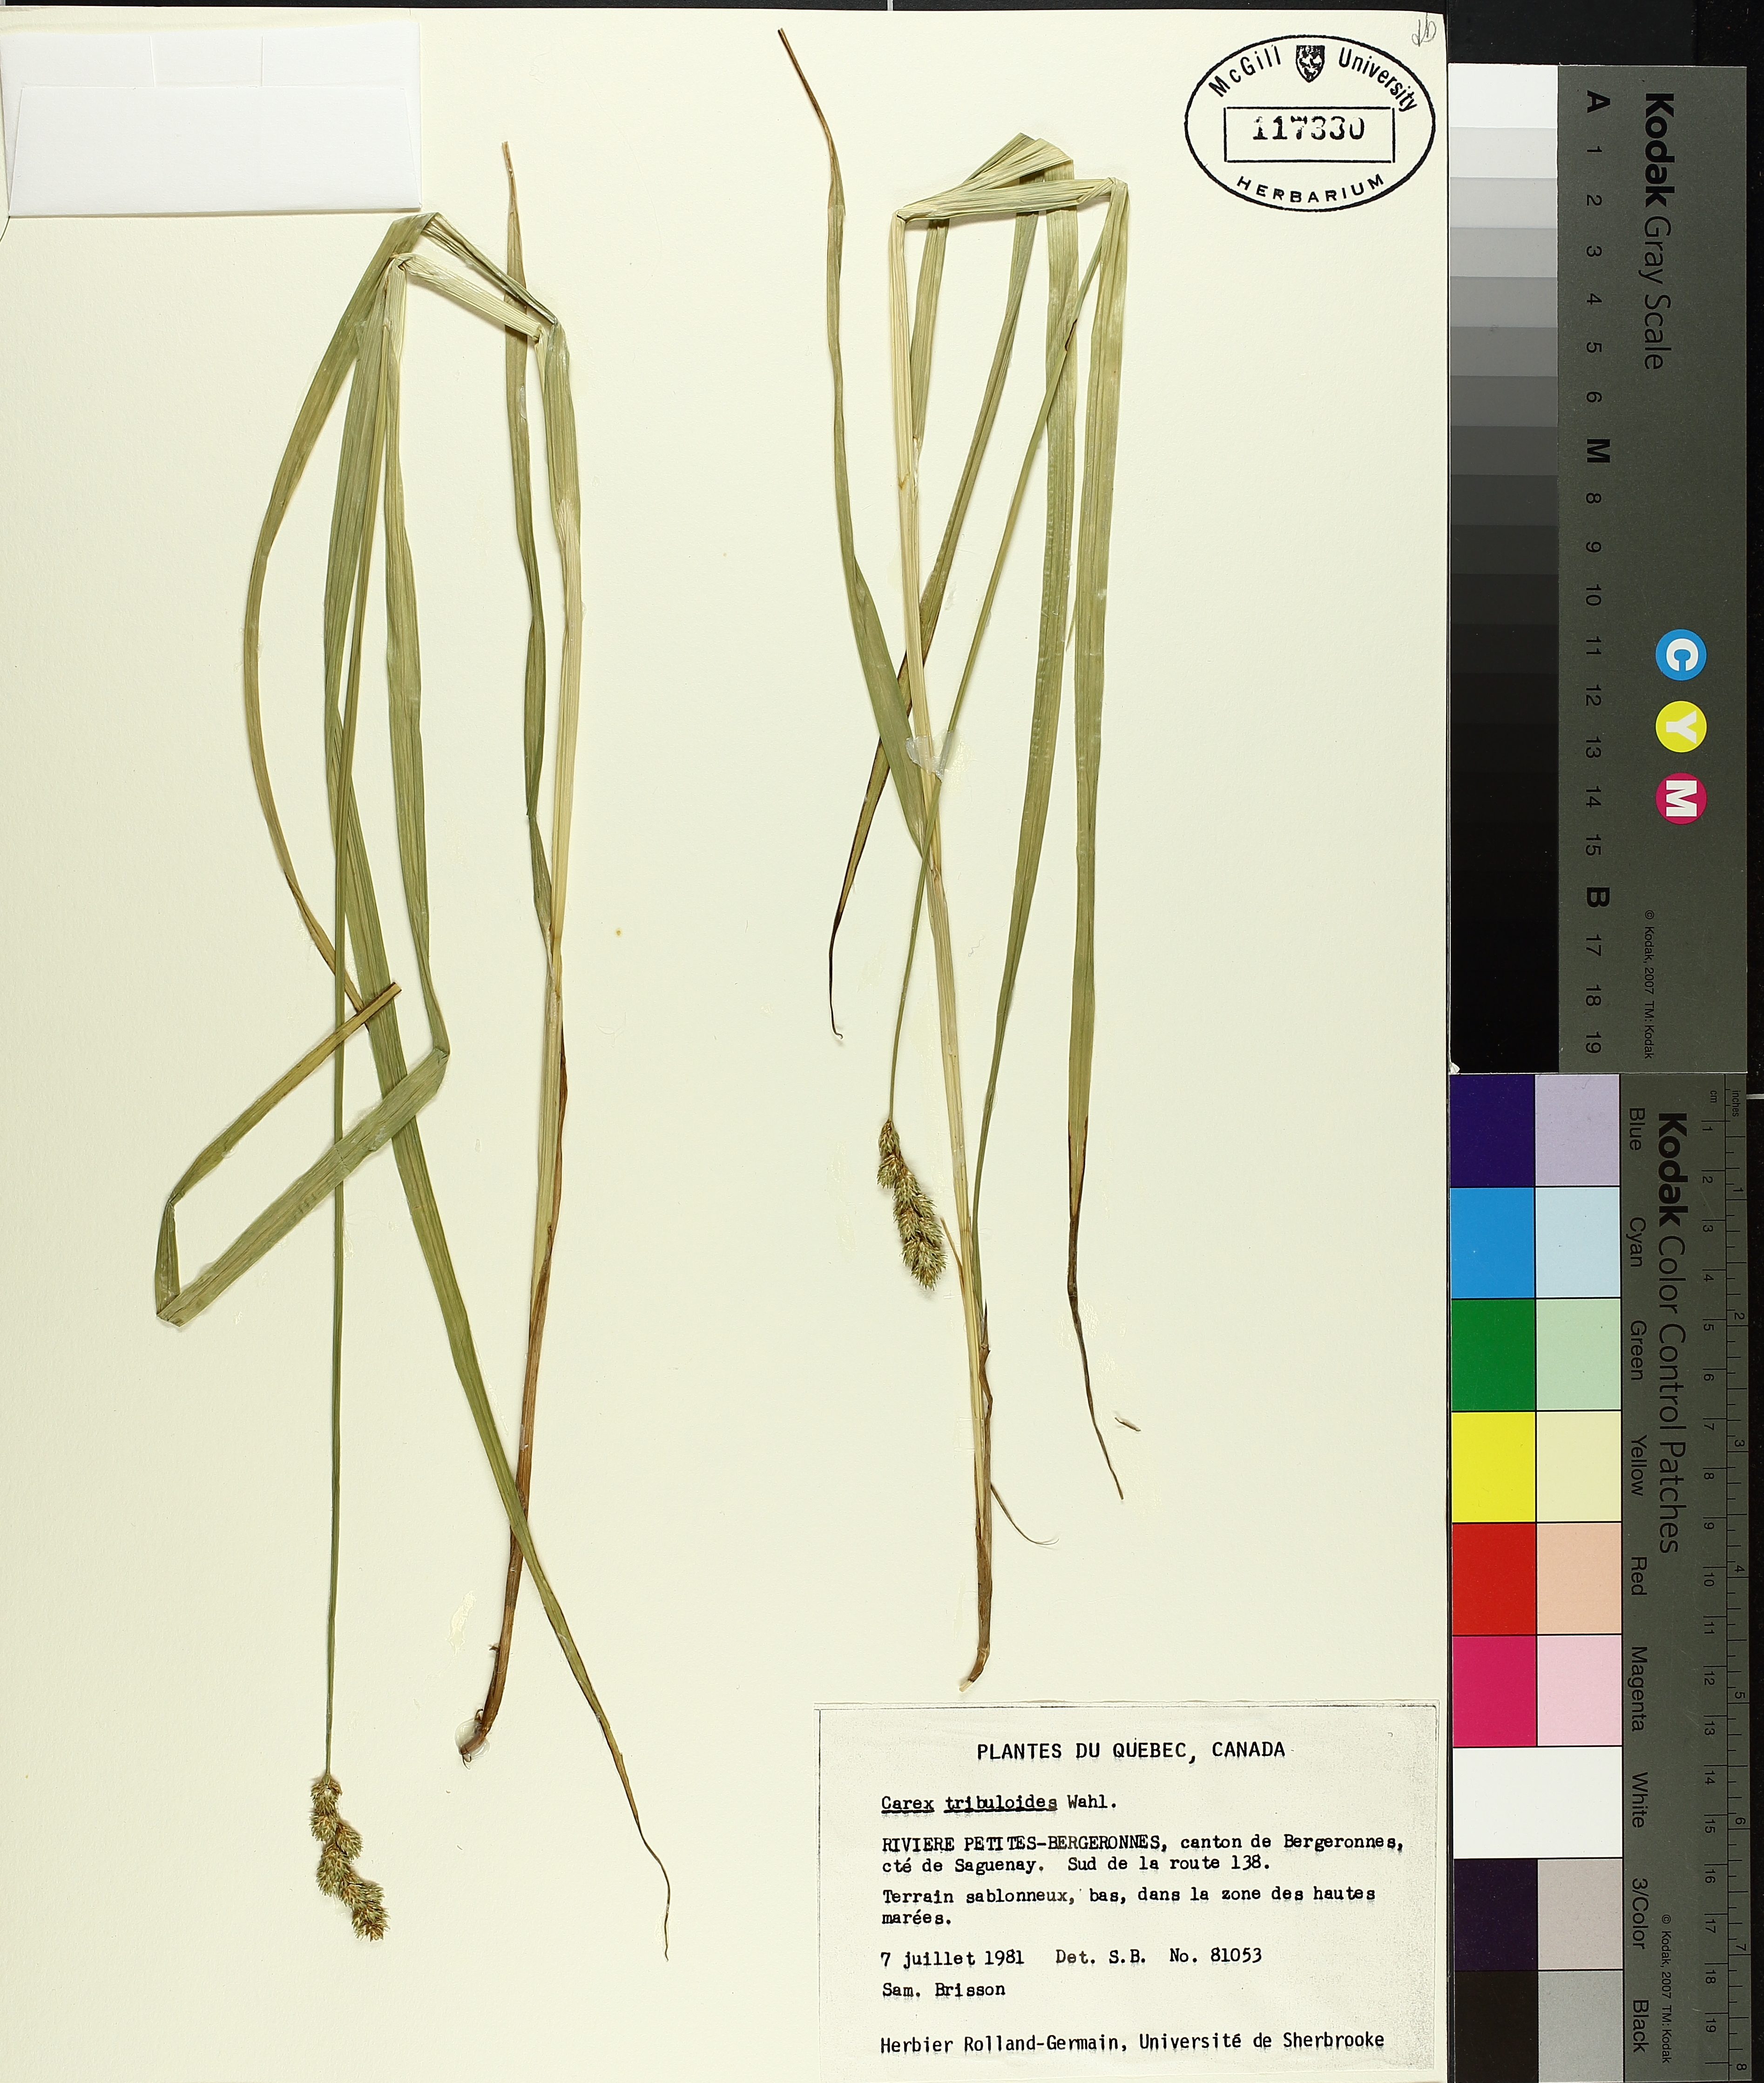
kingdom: Plantae
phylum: Tracheophyta
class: Liliopsida
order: Poales
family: Cyperaceae
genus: Carex
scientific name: Carex tribuloides
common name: Blunt broom sedge
